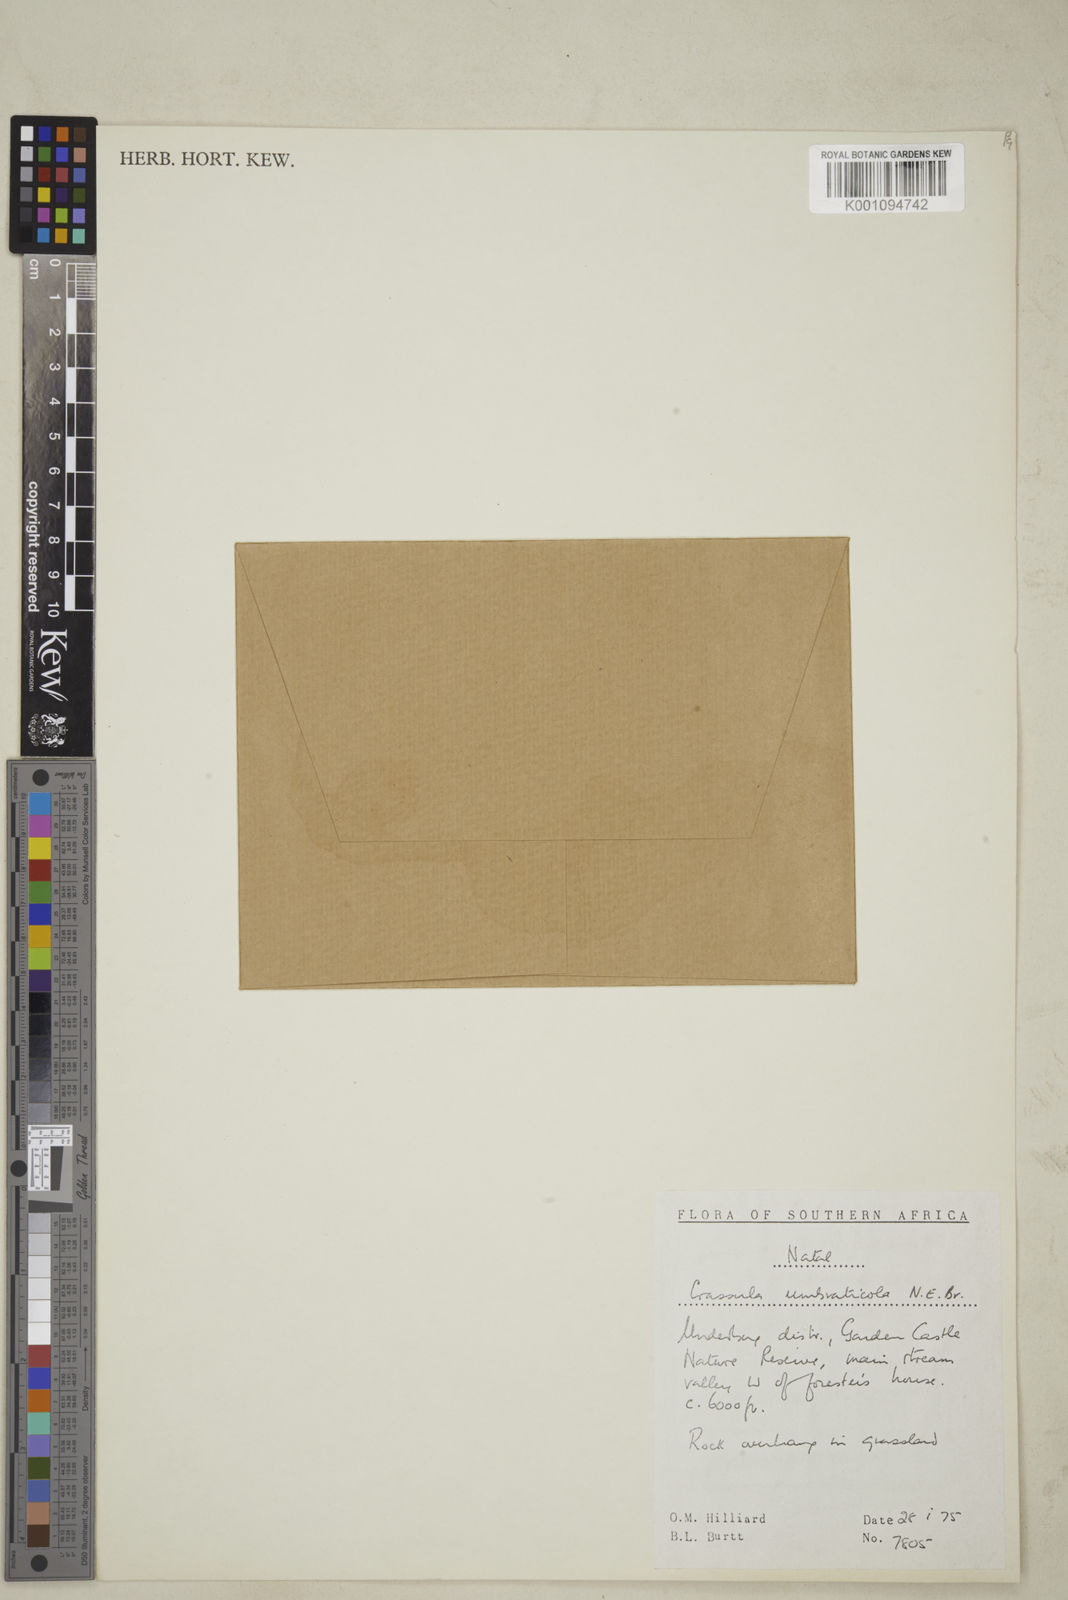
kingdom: Plantae
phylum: Tracheophyta
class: Magnoliopsida
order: Saxifragales
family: Crassulaceae
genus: Crassula
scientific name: Crassula umbraticola
